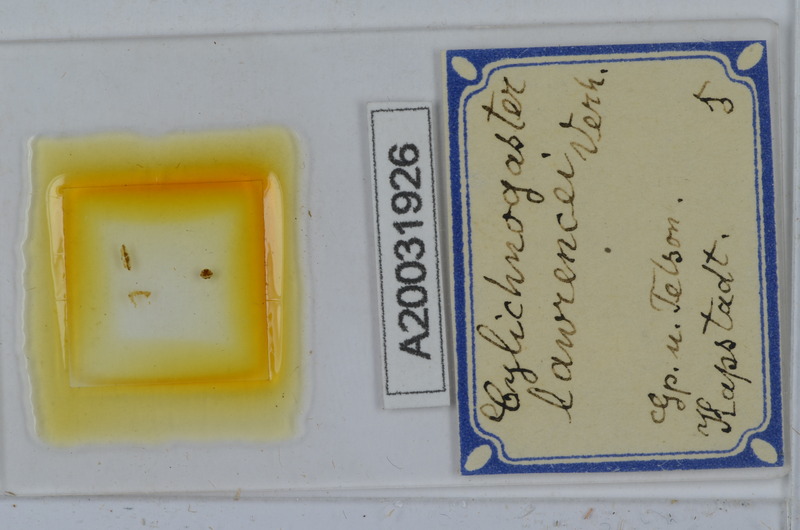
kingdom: Animalia
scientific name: Animalia
